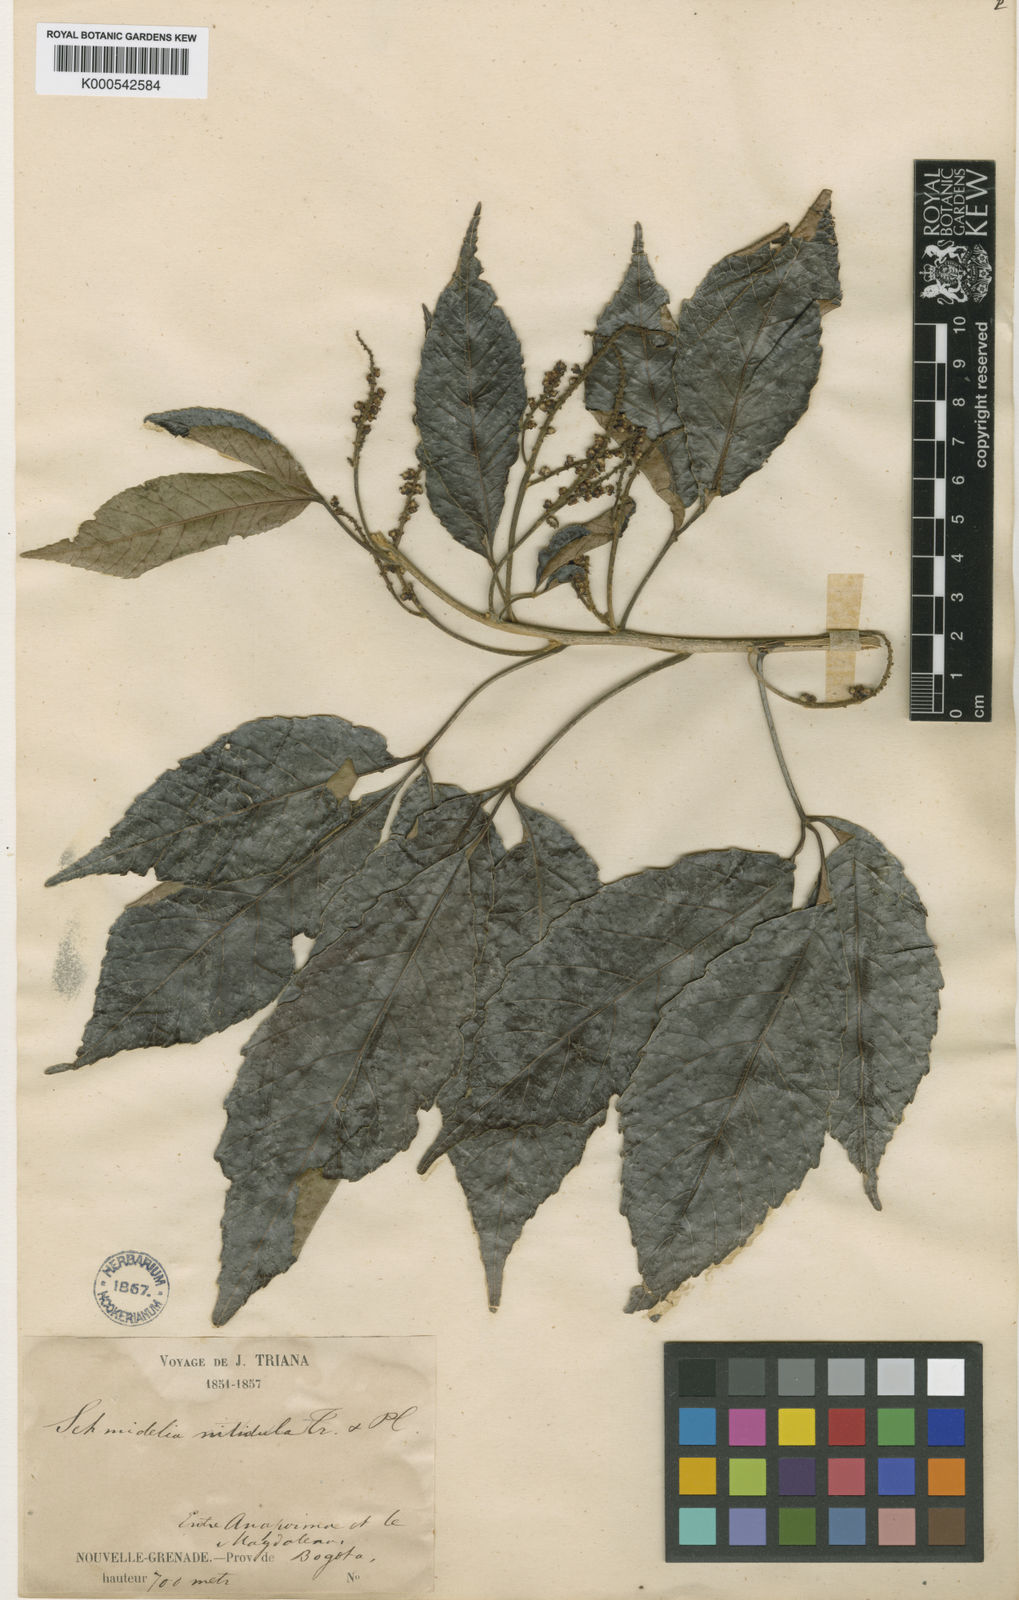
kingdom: Plantae
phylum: Tracheophyta
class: Magnoliopsida
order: Sapindales
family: Sapindaceae
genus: Allophylus
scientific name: Allophylus nitidulus
